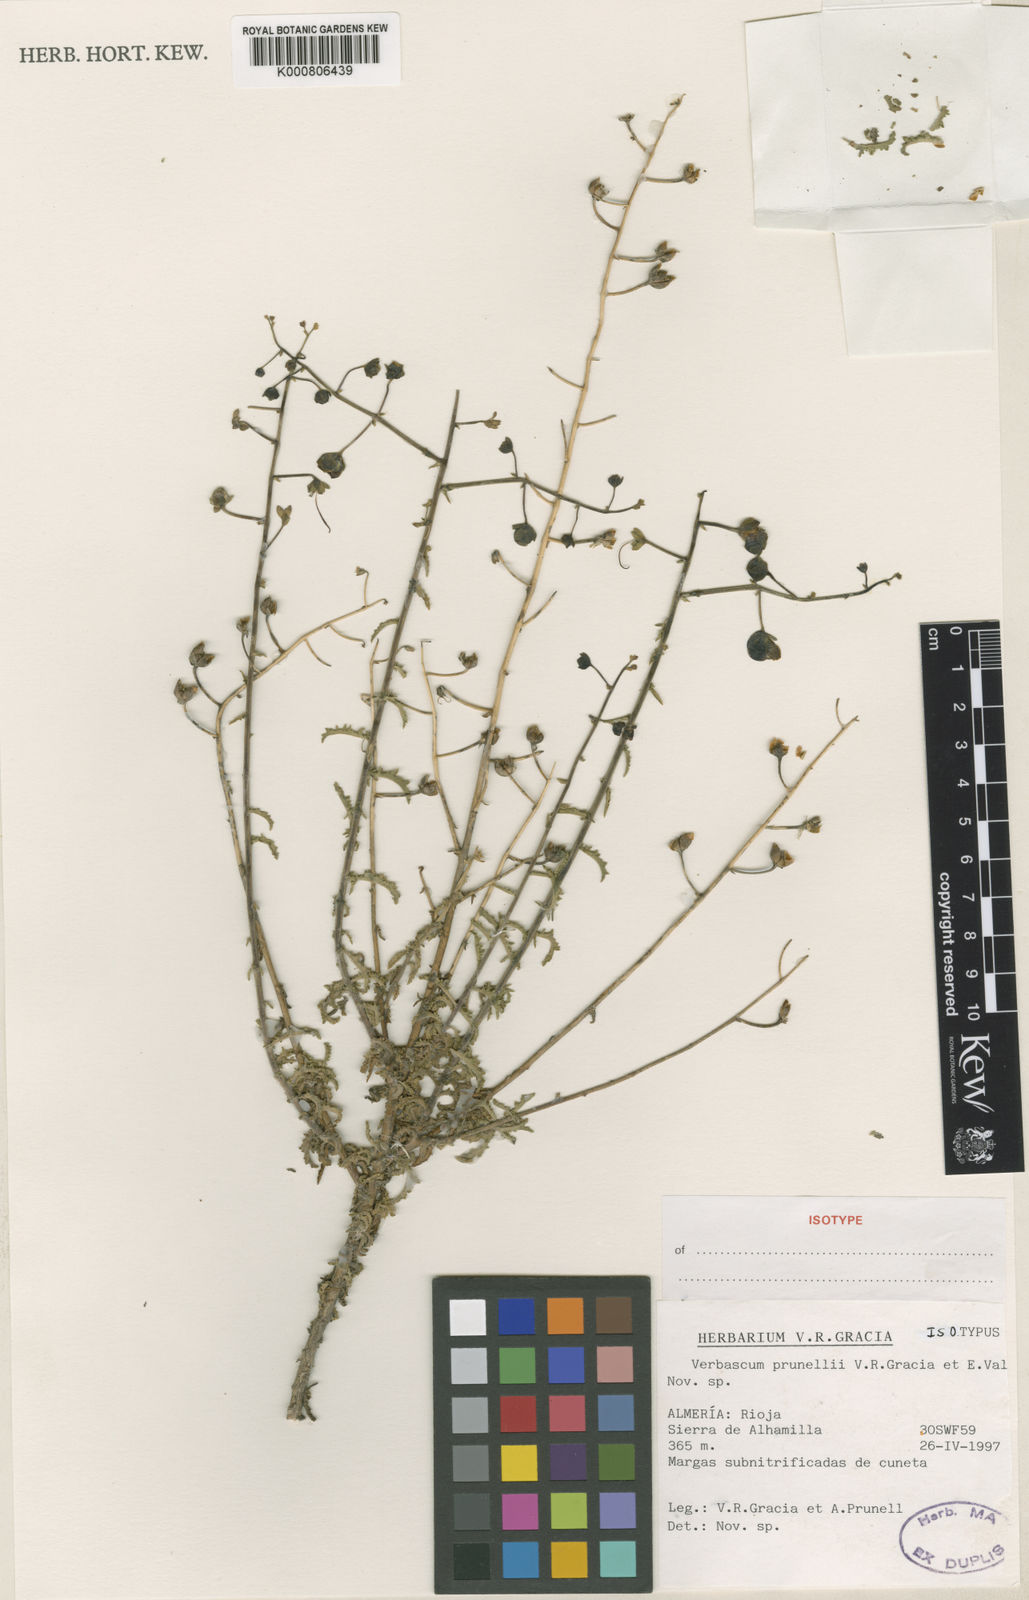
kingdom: Plantae
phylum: Tracheophyta
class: Magnoliopsida
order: Lamiales
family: Scrophulariaceae
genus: Verbascum
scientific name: Verbascum
